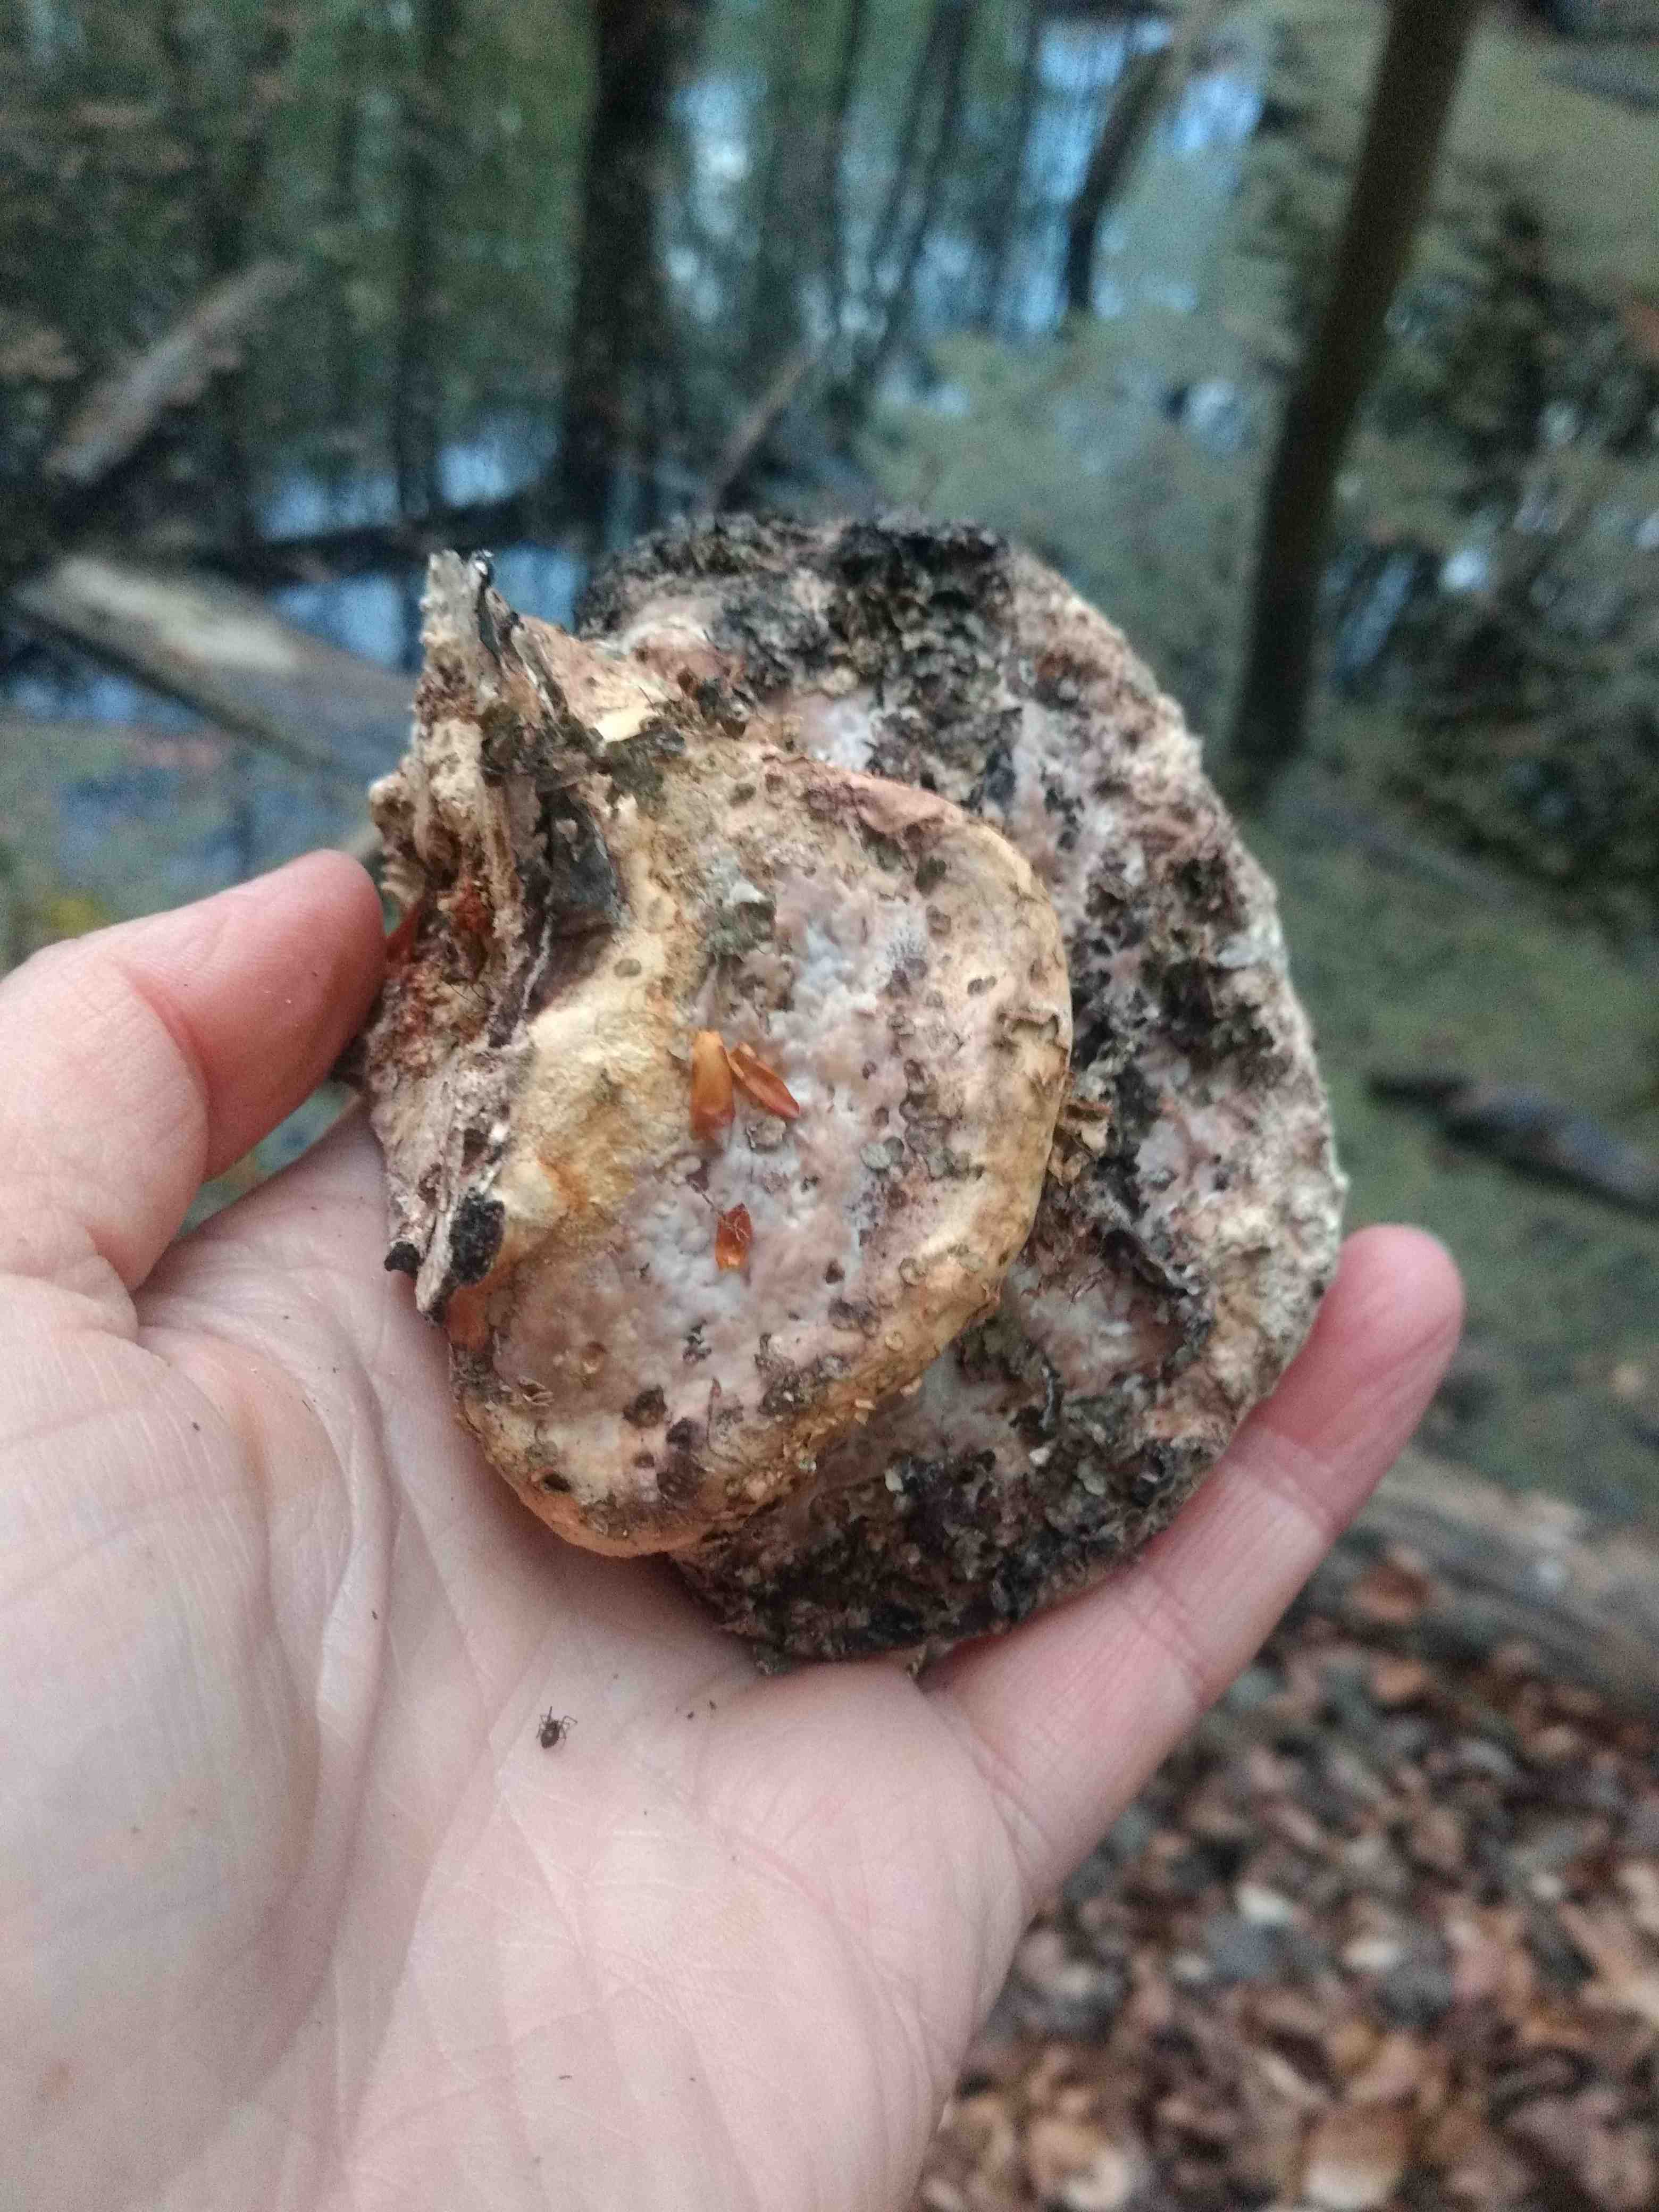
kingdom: Fungi
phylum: Basidiomycota
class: Agaricomycetes
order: Polyporales
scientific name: Polyporales
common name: poresvampordenen
